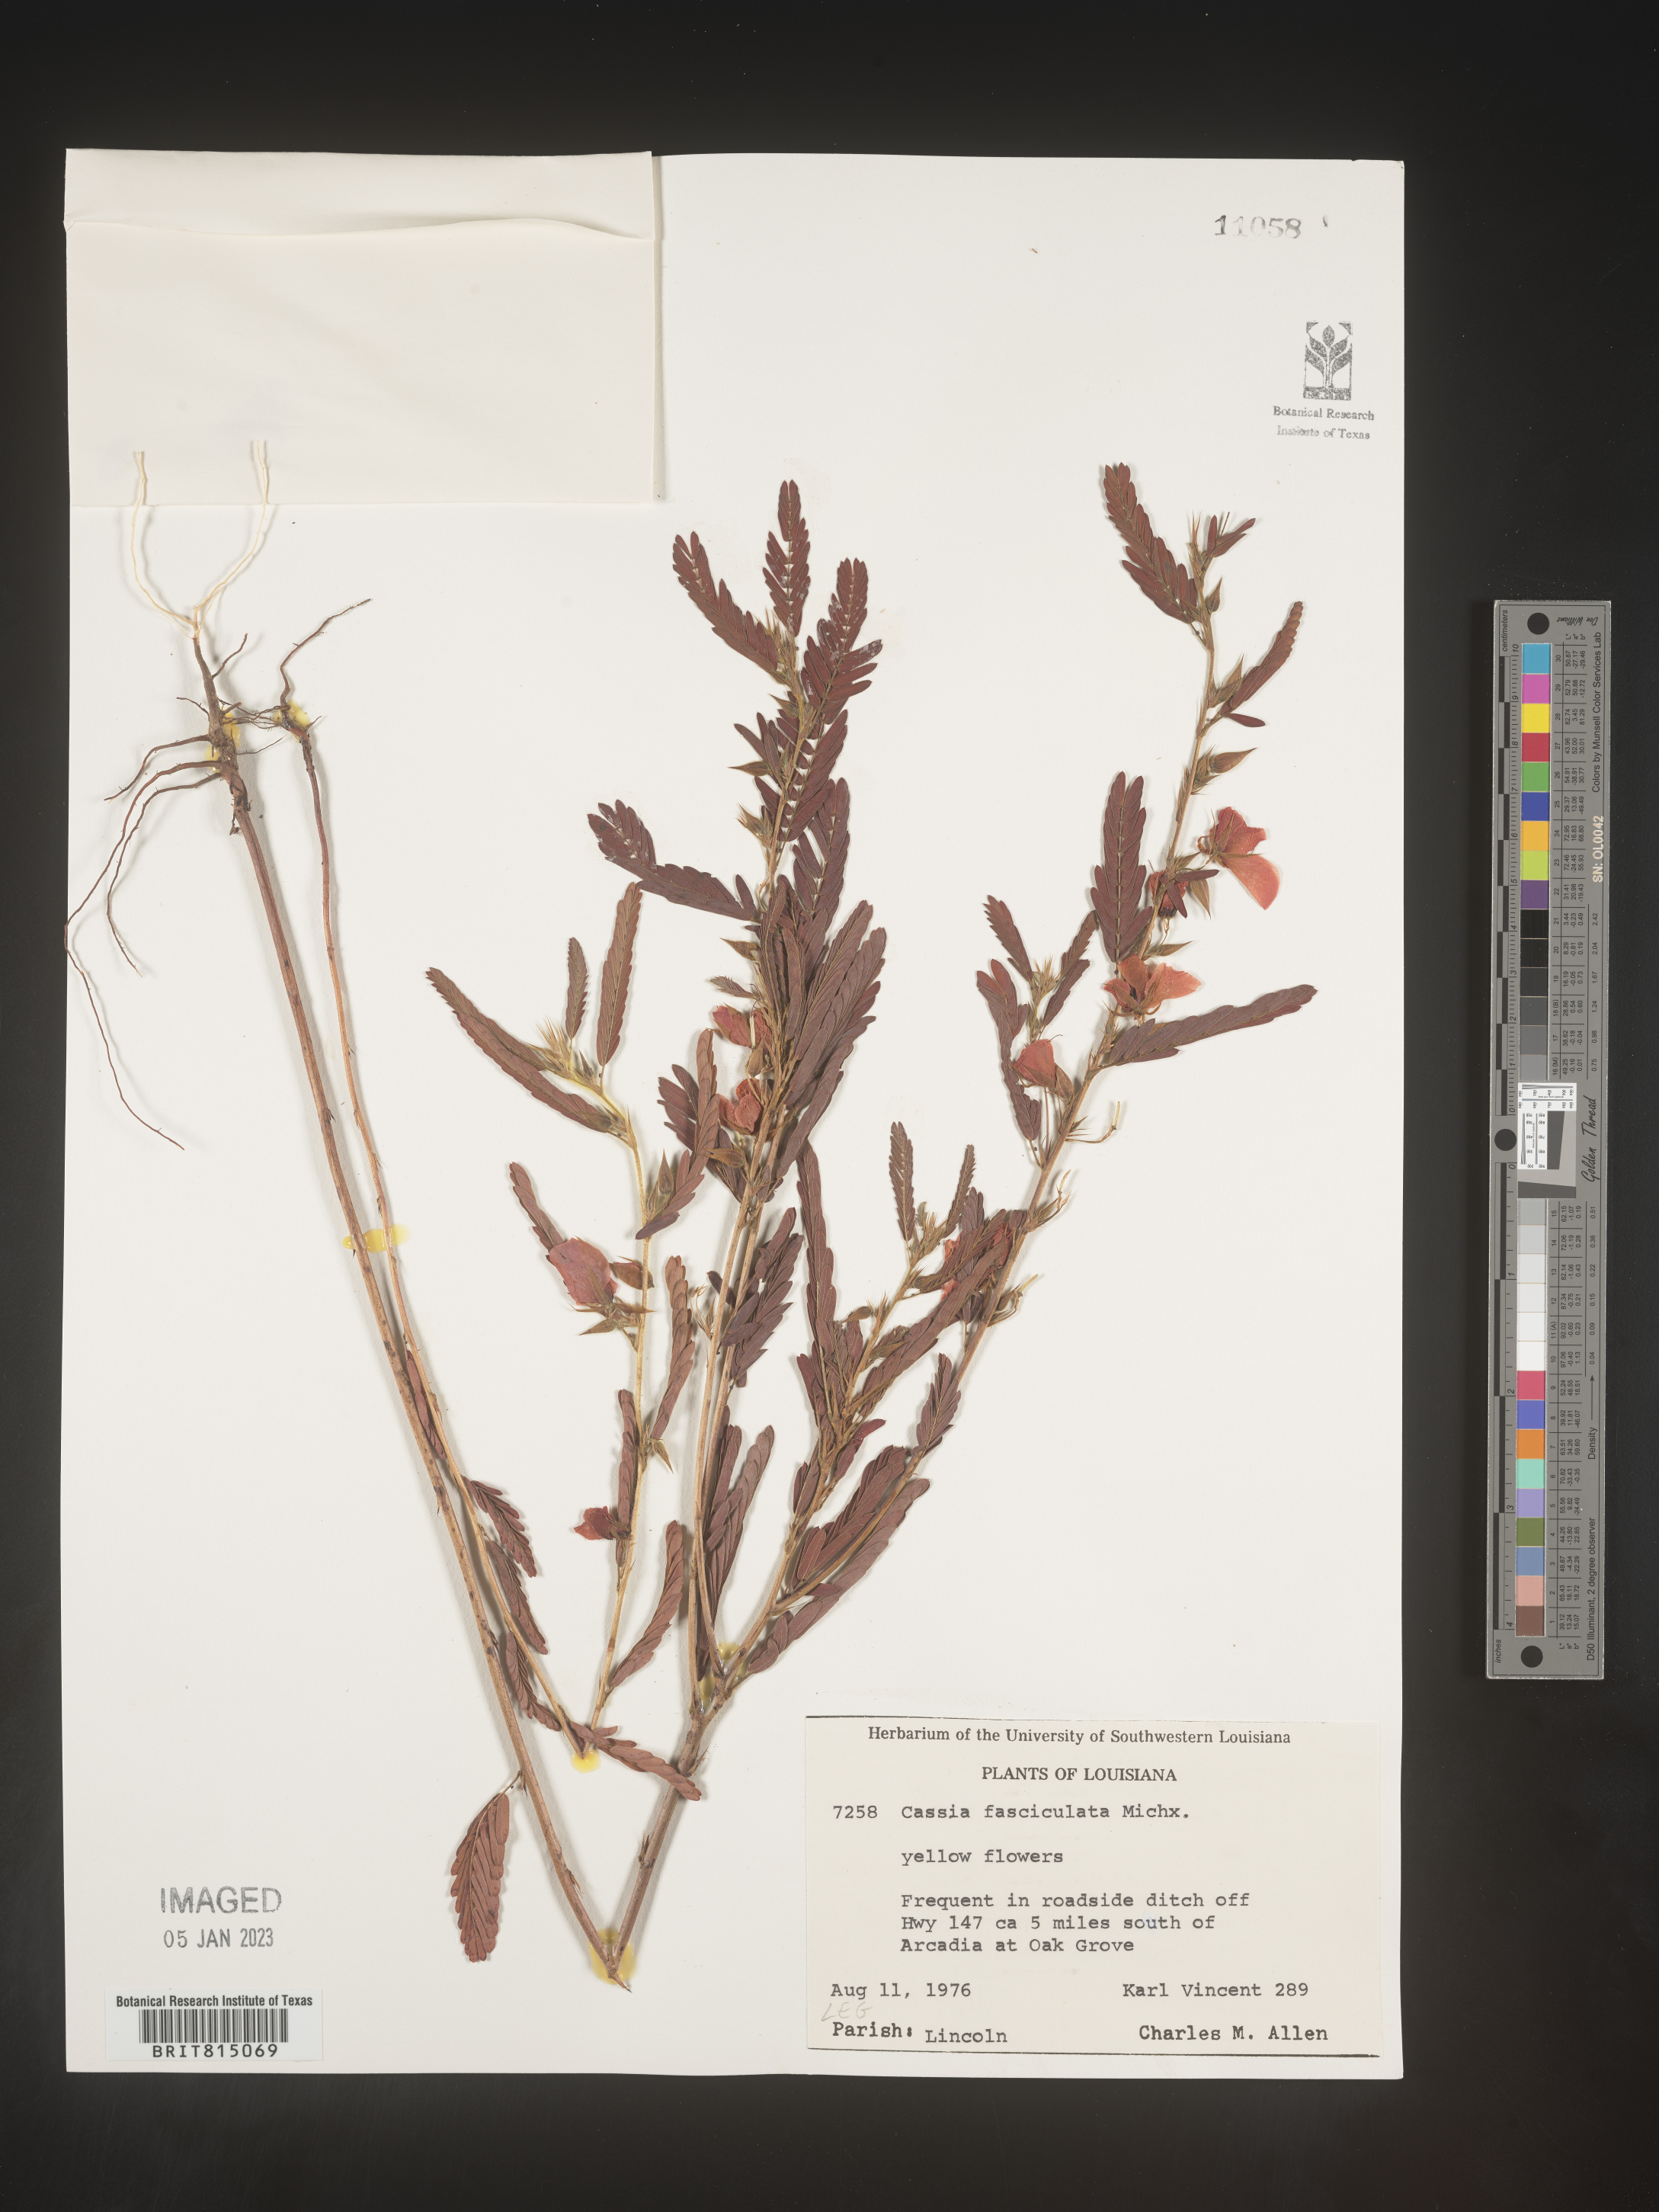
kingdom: Plantae
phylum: Tracheophyta
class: Magnoliopsida
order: Fabales
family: Fabaceae
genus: Chamaecrista
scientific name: Chamaecrista fasciculata
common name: Golden cassia
